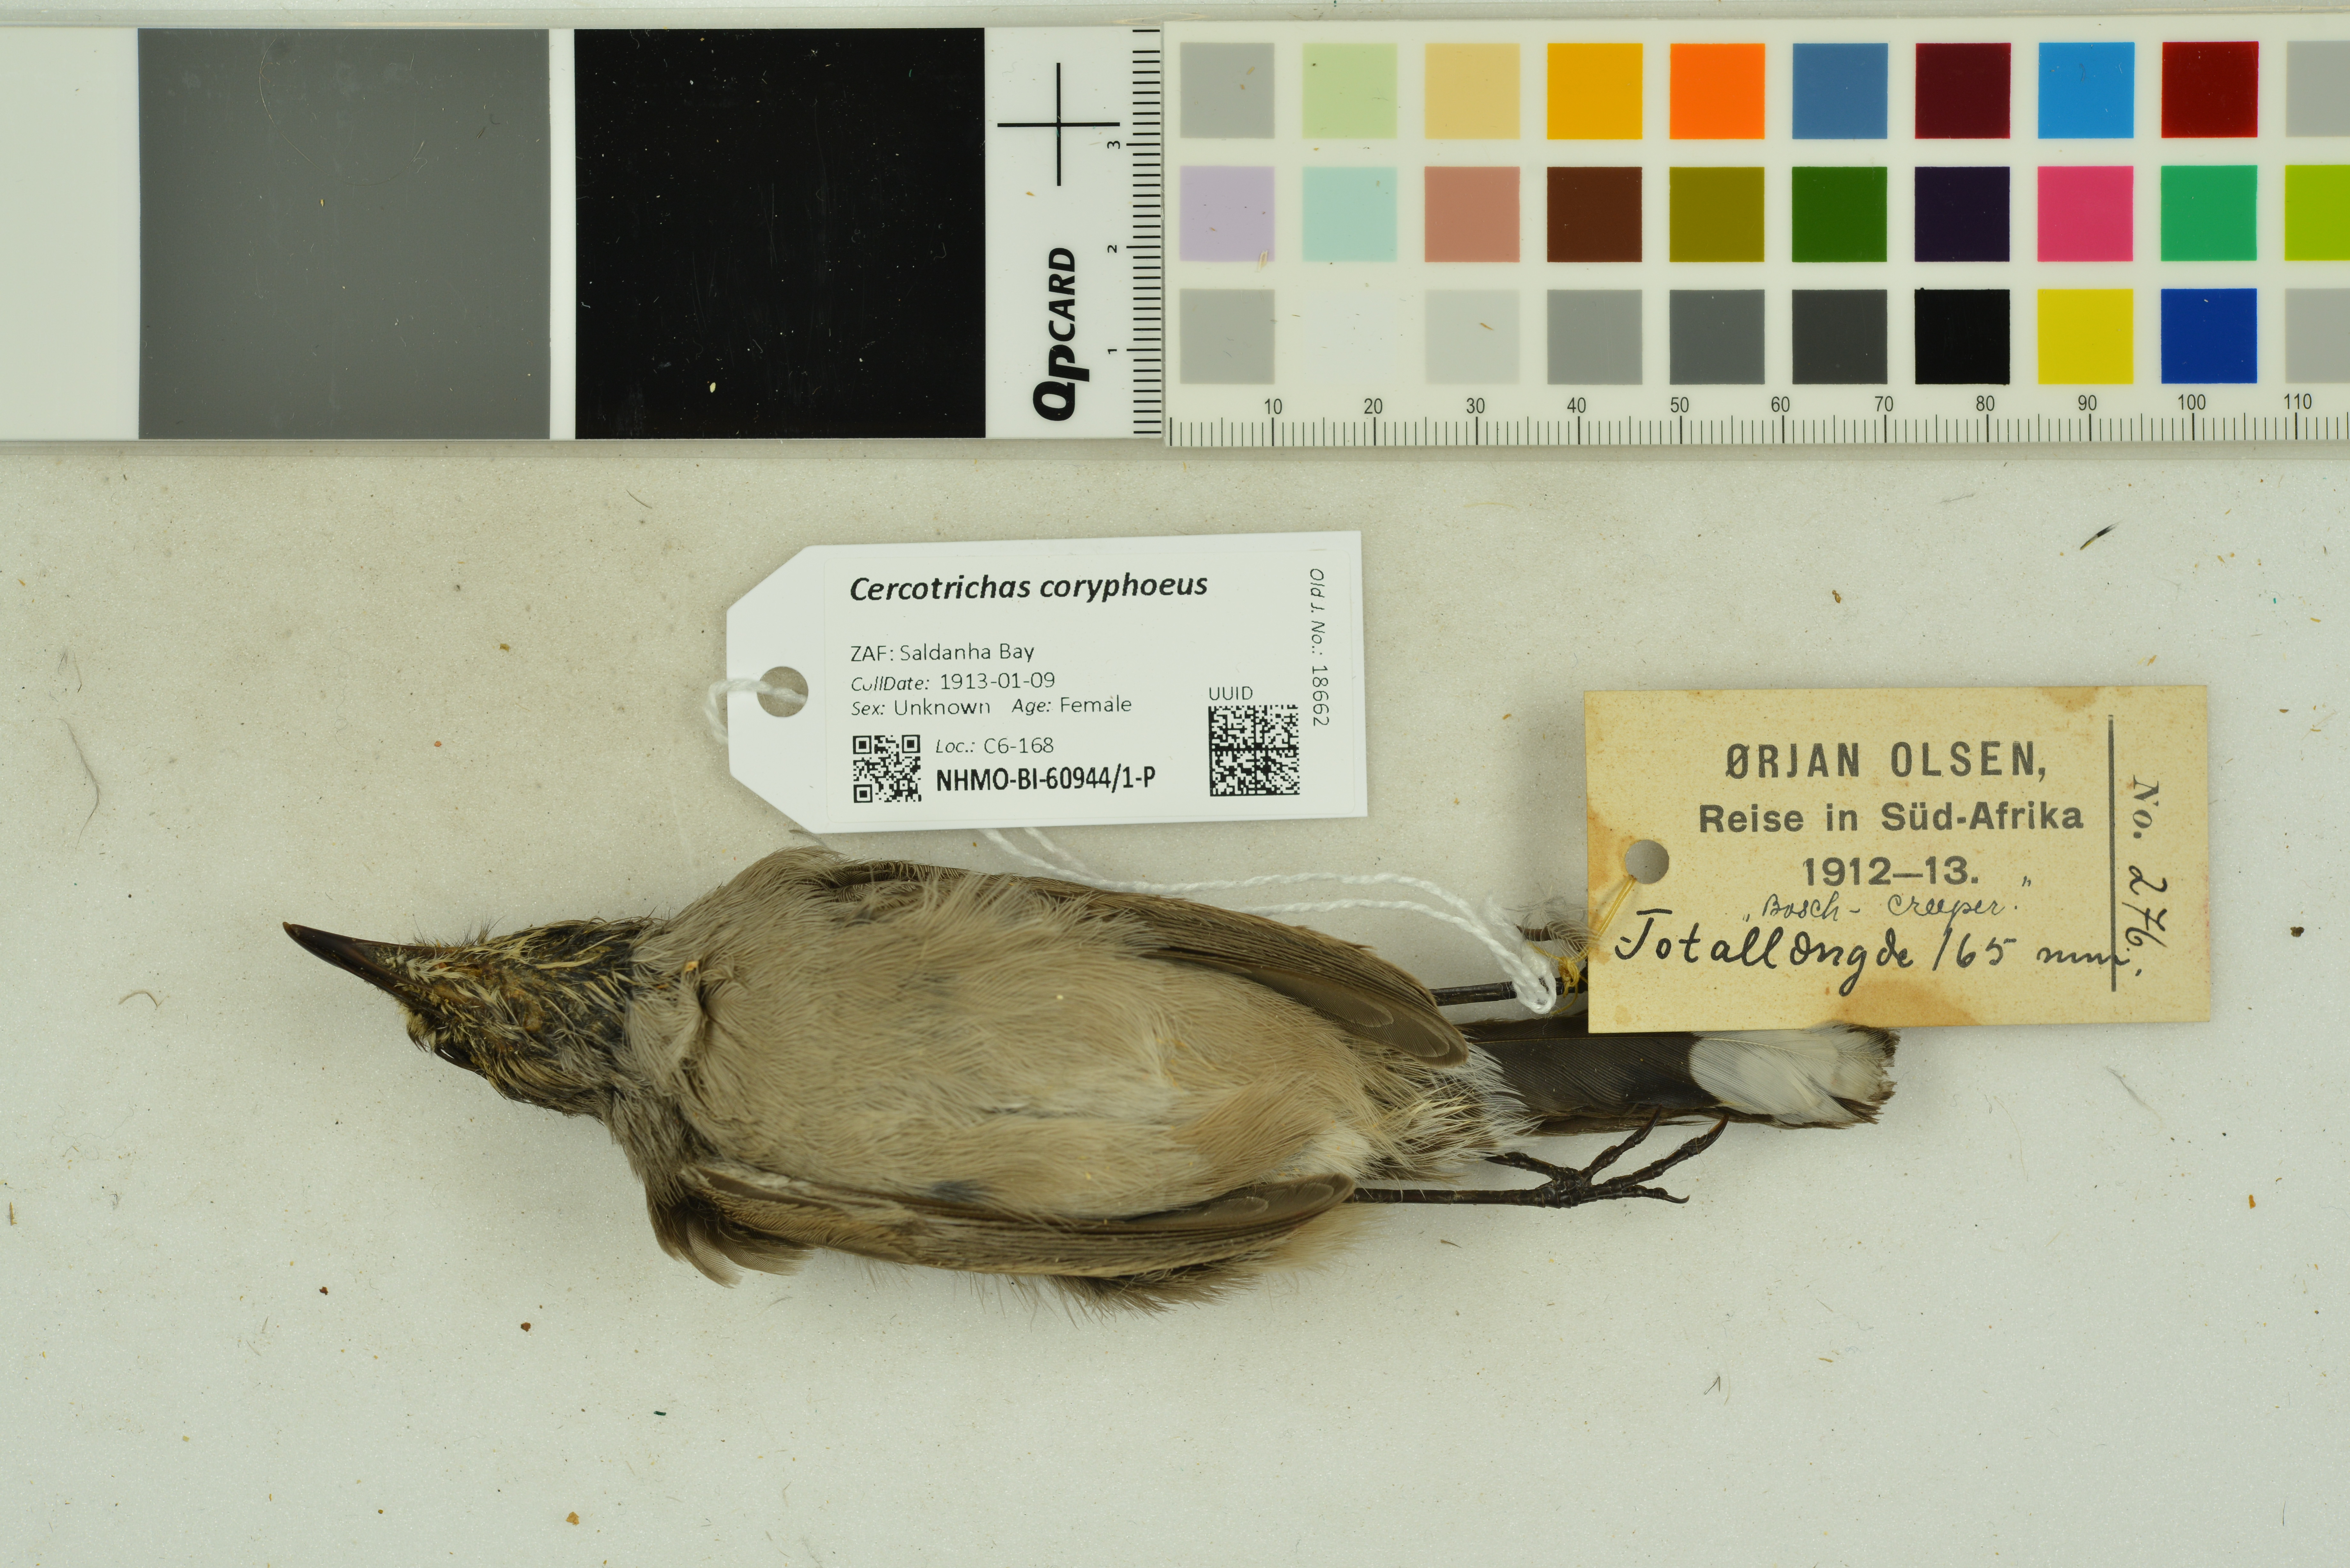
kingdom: Animalia
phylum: Chordata
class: Aves
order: Passeriformes
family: Muscicapidae
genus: Erythropygia
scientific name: Erythropygia coryphoeus
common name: Karoo scrub robin
